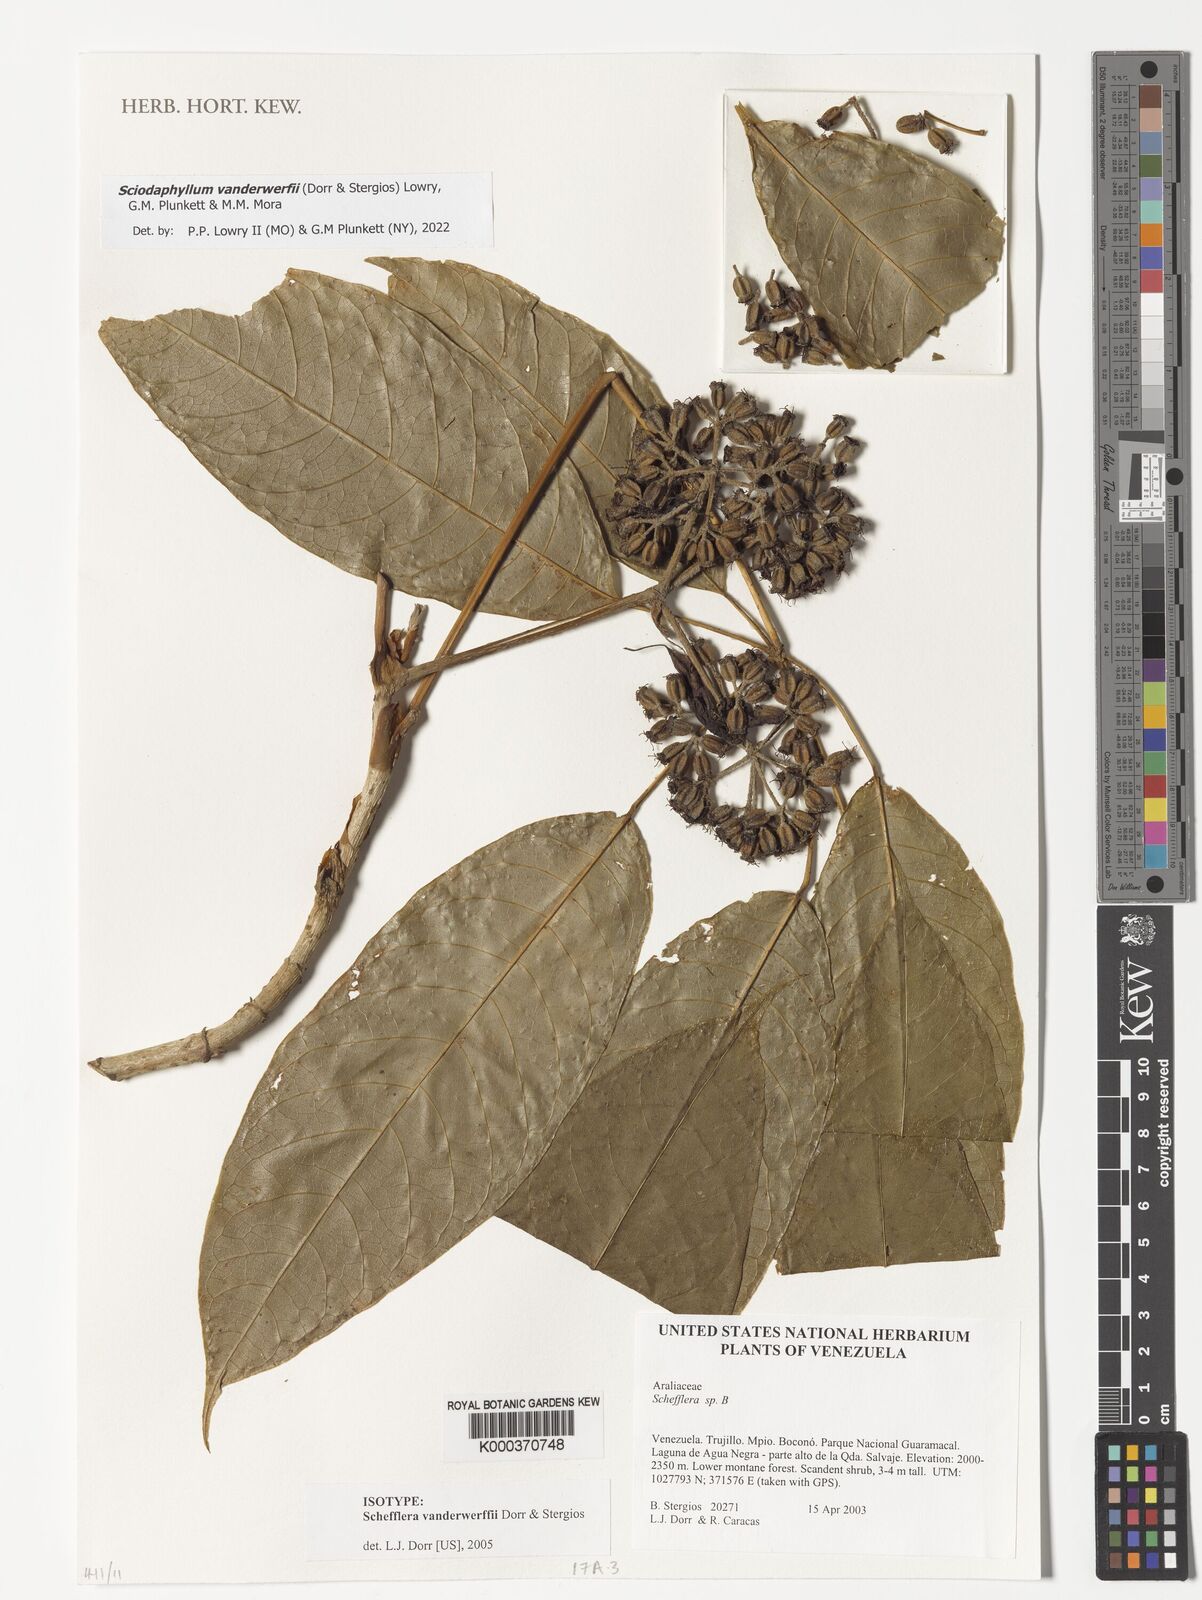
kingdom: Plantae
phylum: Tracheophyta
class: Magnoliopsida
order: Apiales
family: Araliaceae
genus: Sciodaphyllum
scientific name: Sciodaphyllum
